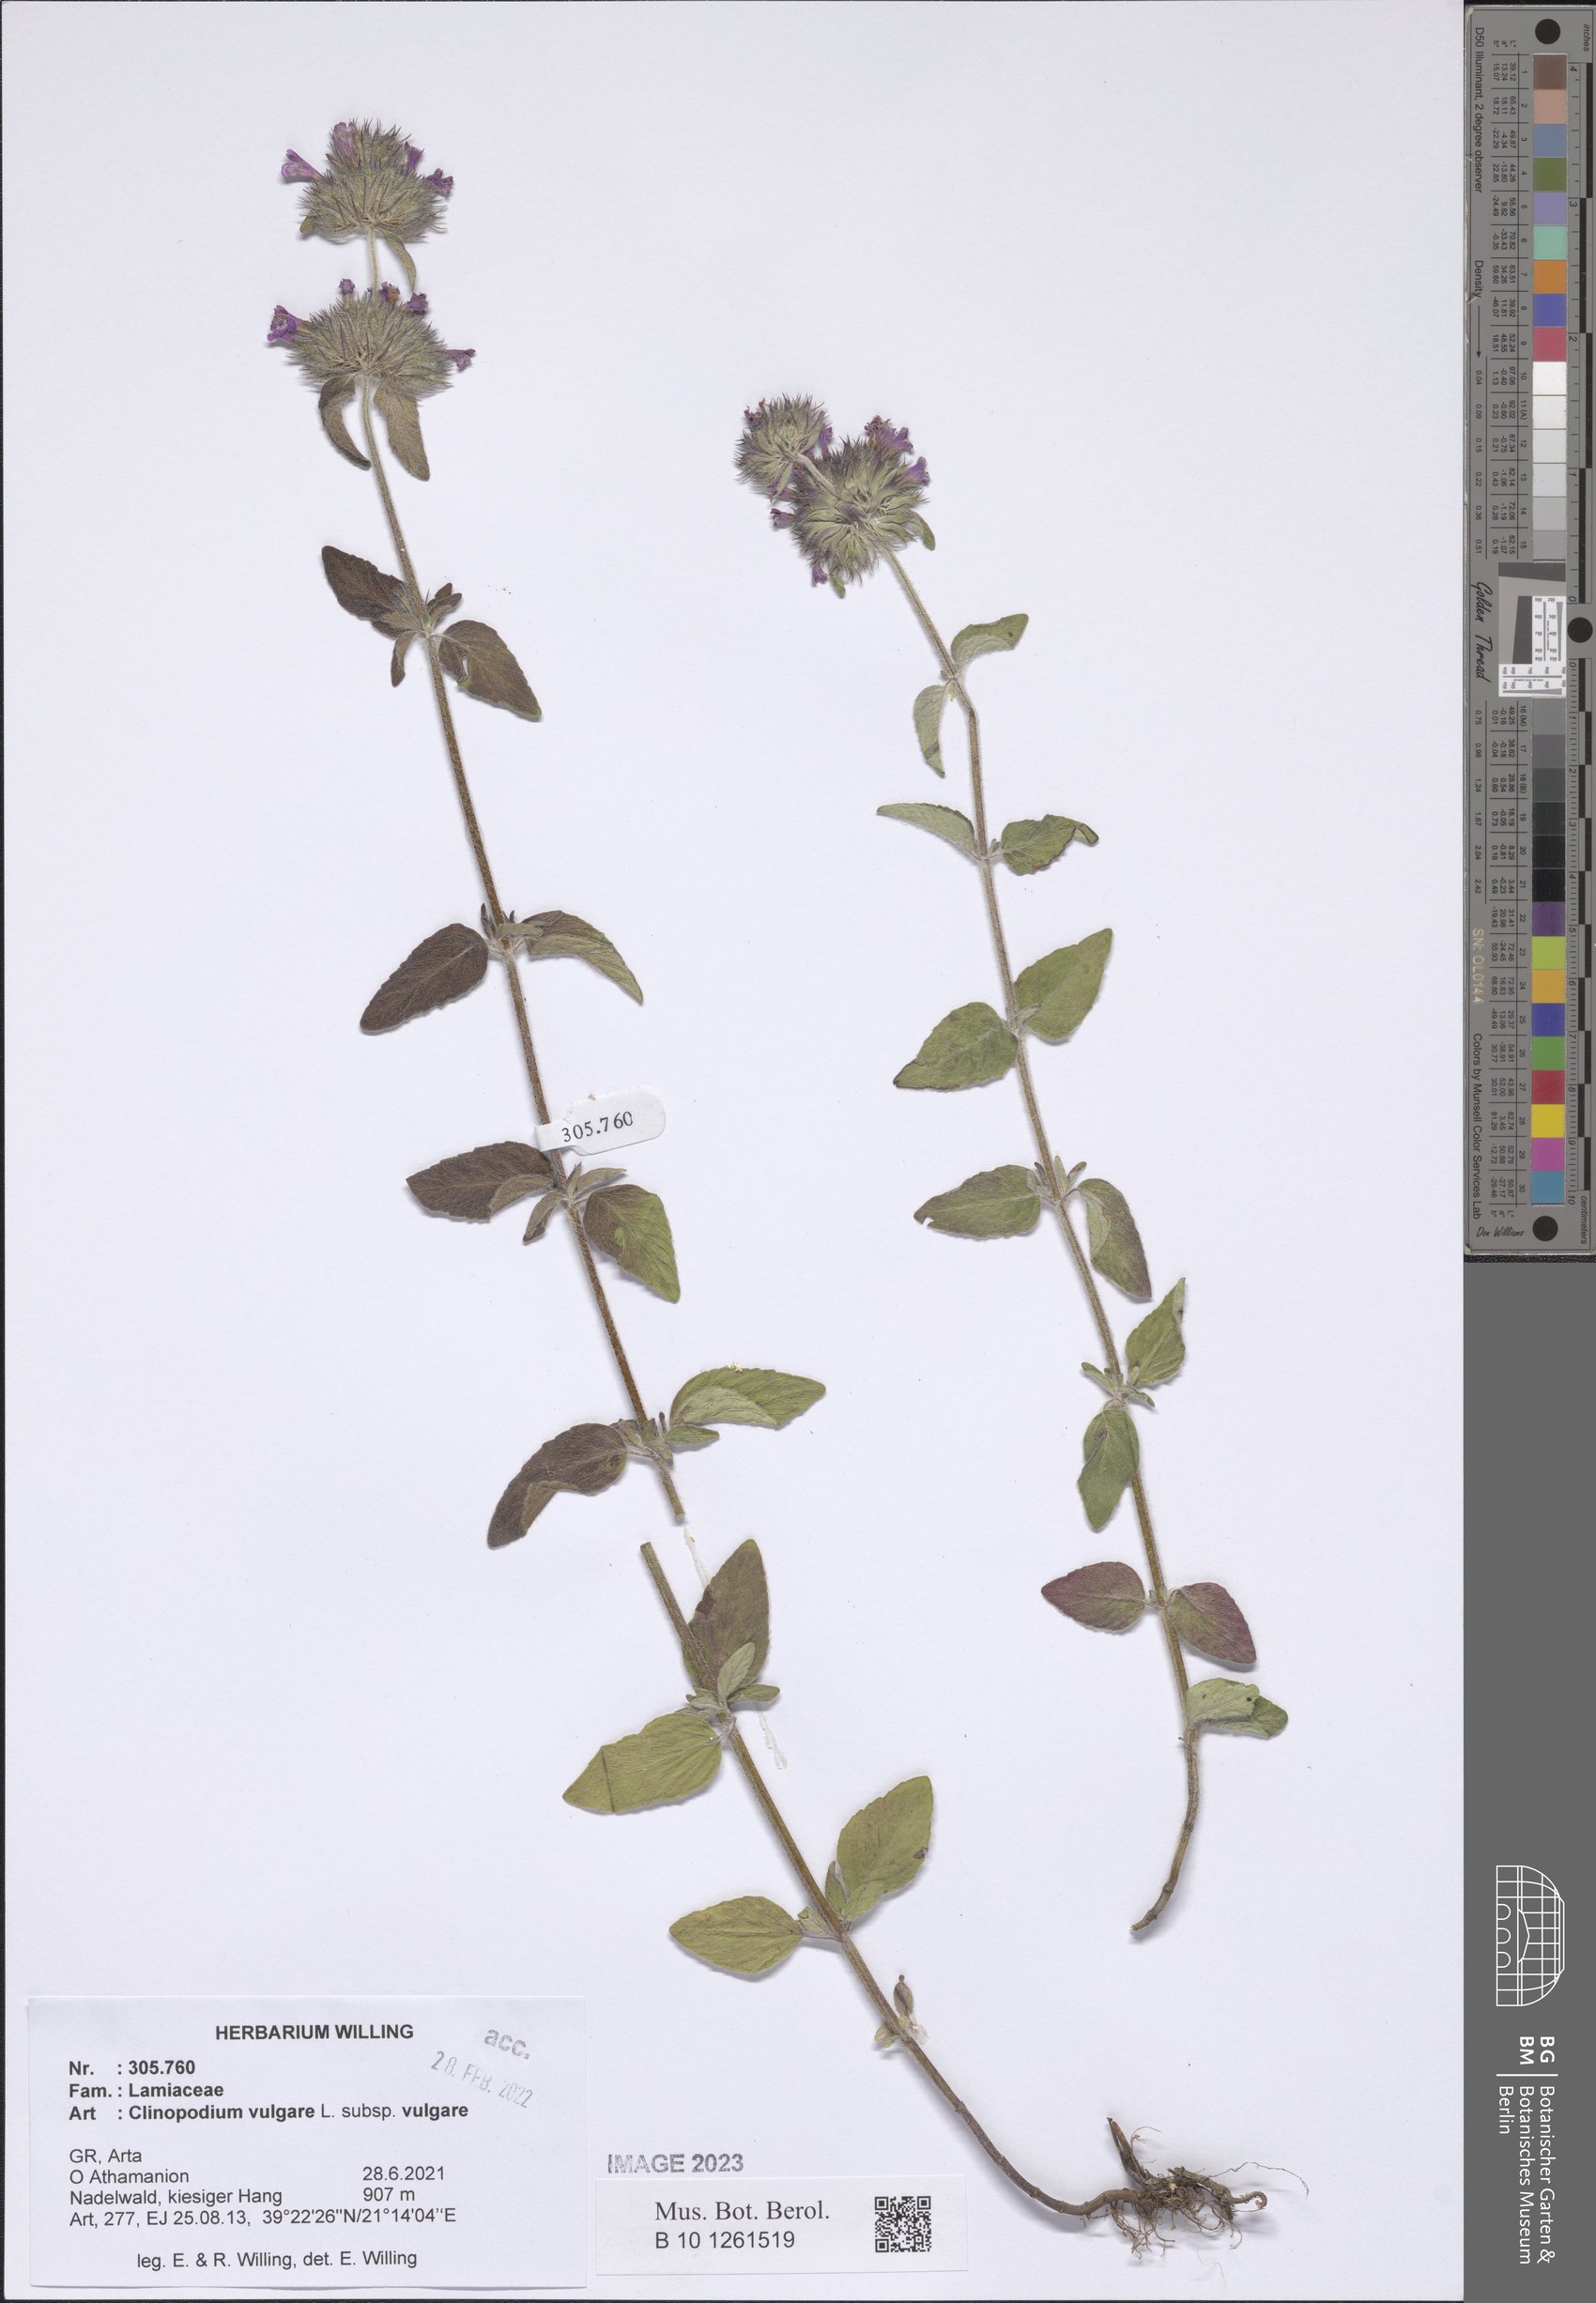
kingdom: Plantae
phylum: Tracheophyta
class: Magnoliopsida
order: Lamiales
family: Lamiaceae
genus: Clinopodium
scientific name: Clinopodium vulgare
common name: Wild basil
